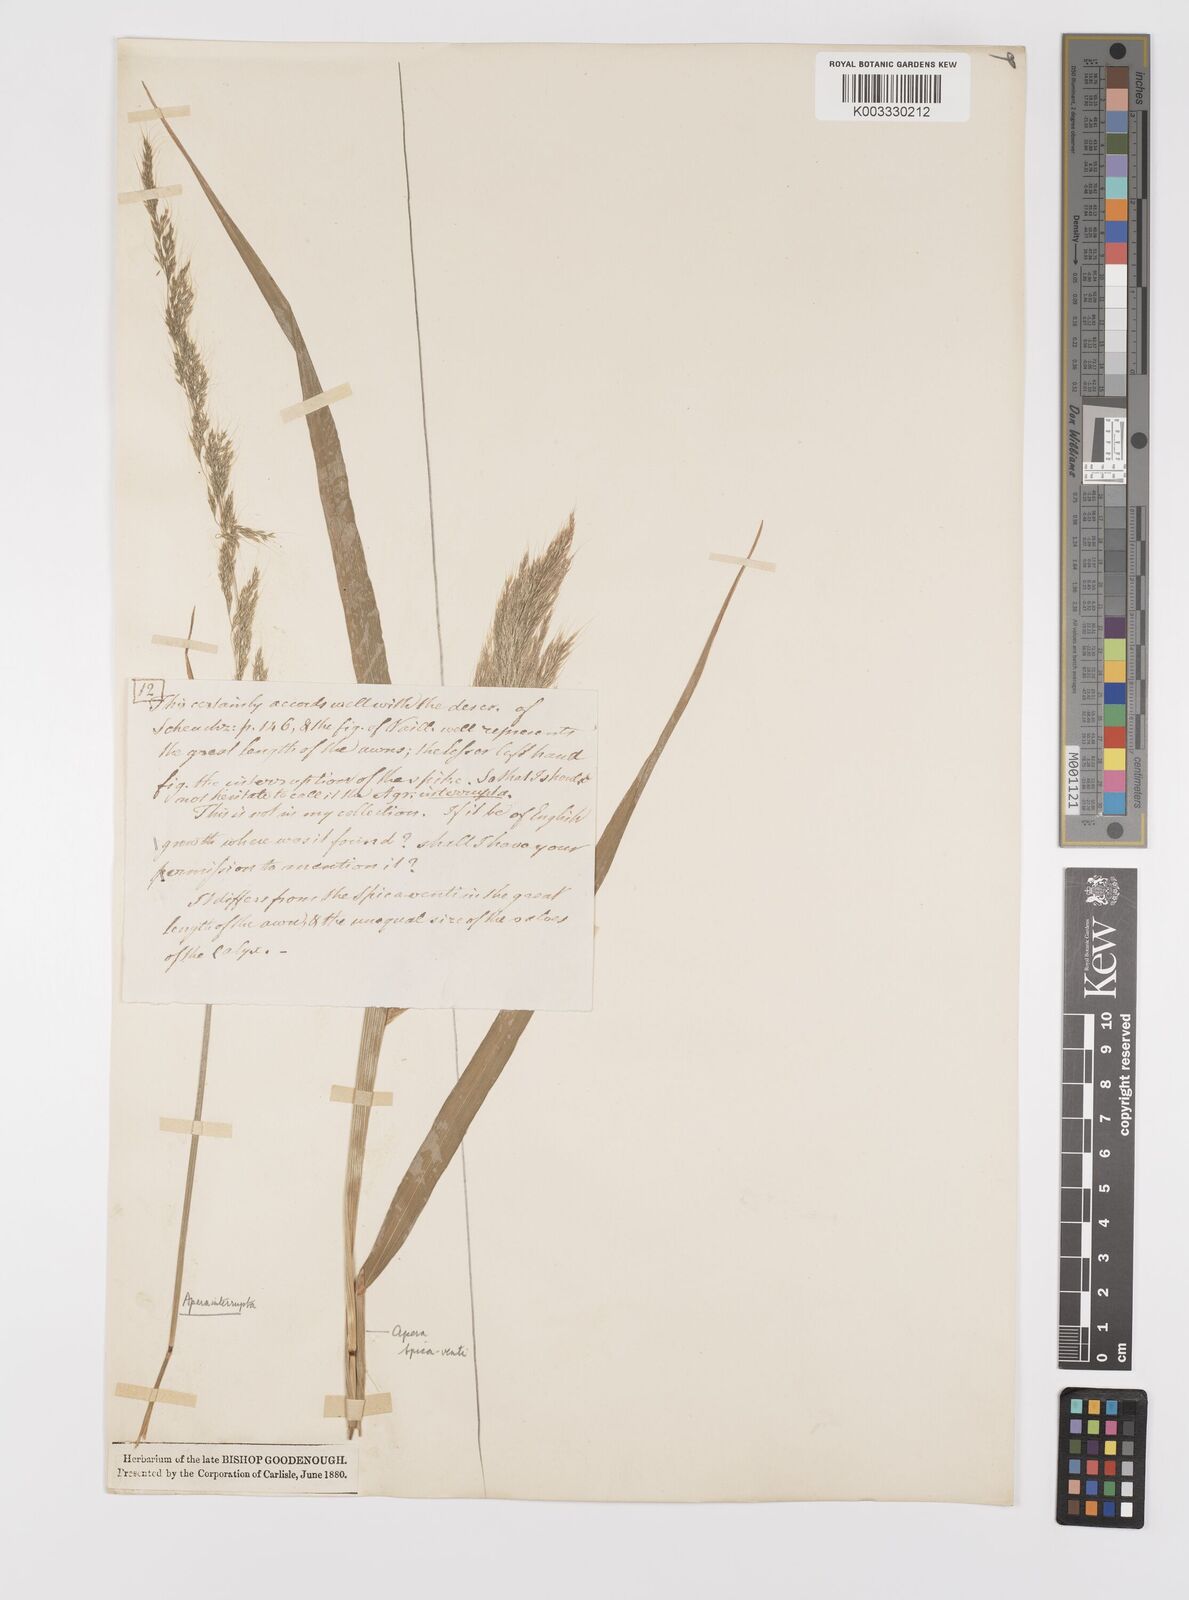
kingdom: Plantae
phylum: Tracheophyta
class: Liliopsida
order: Poales
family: Poaceae
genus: Apera
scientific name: Apera interrupta
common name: Dense silky-bent
